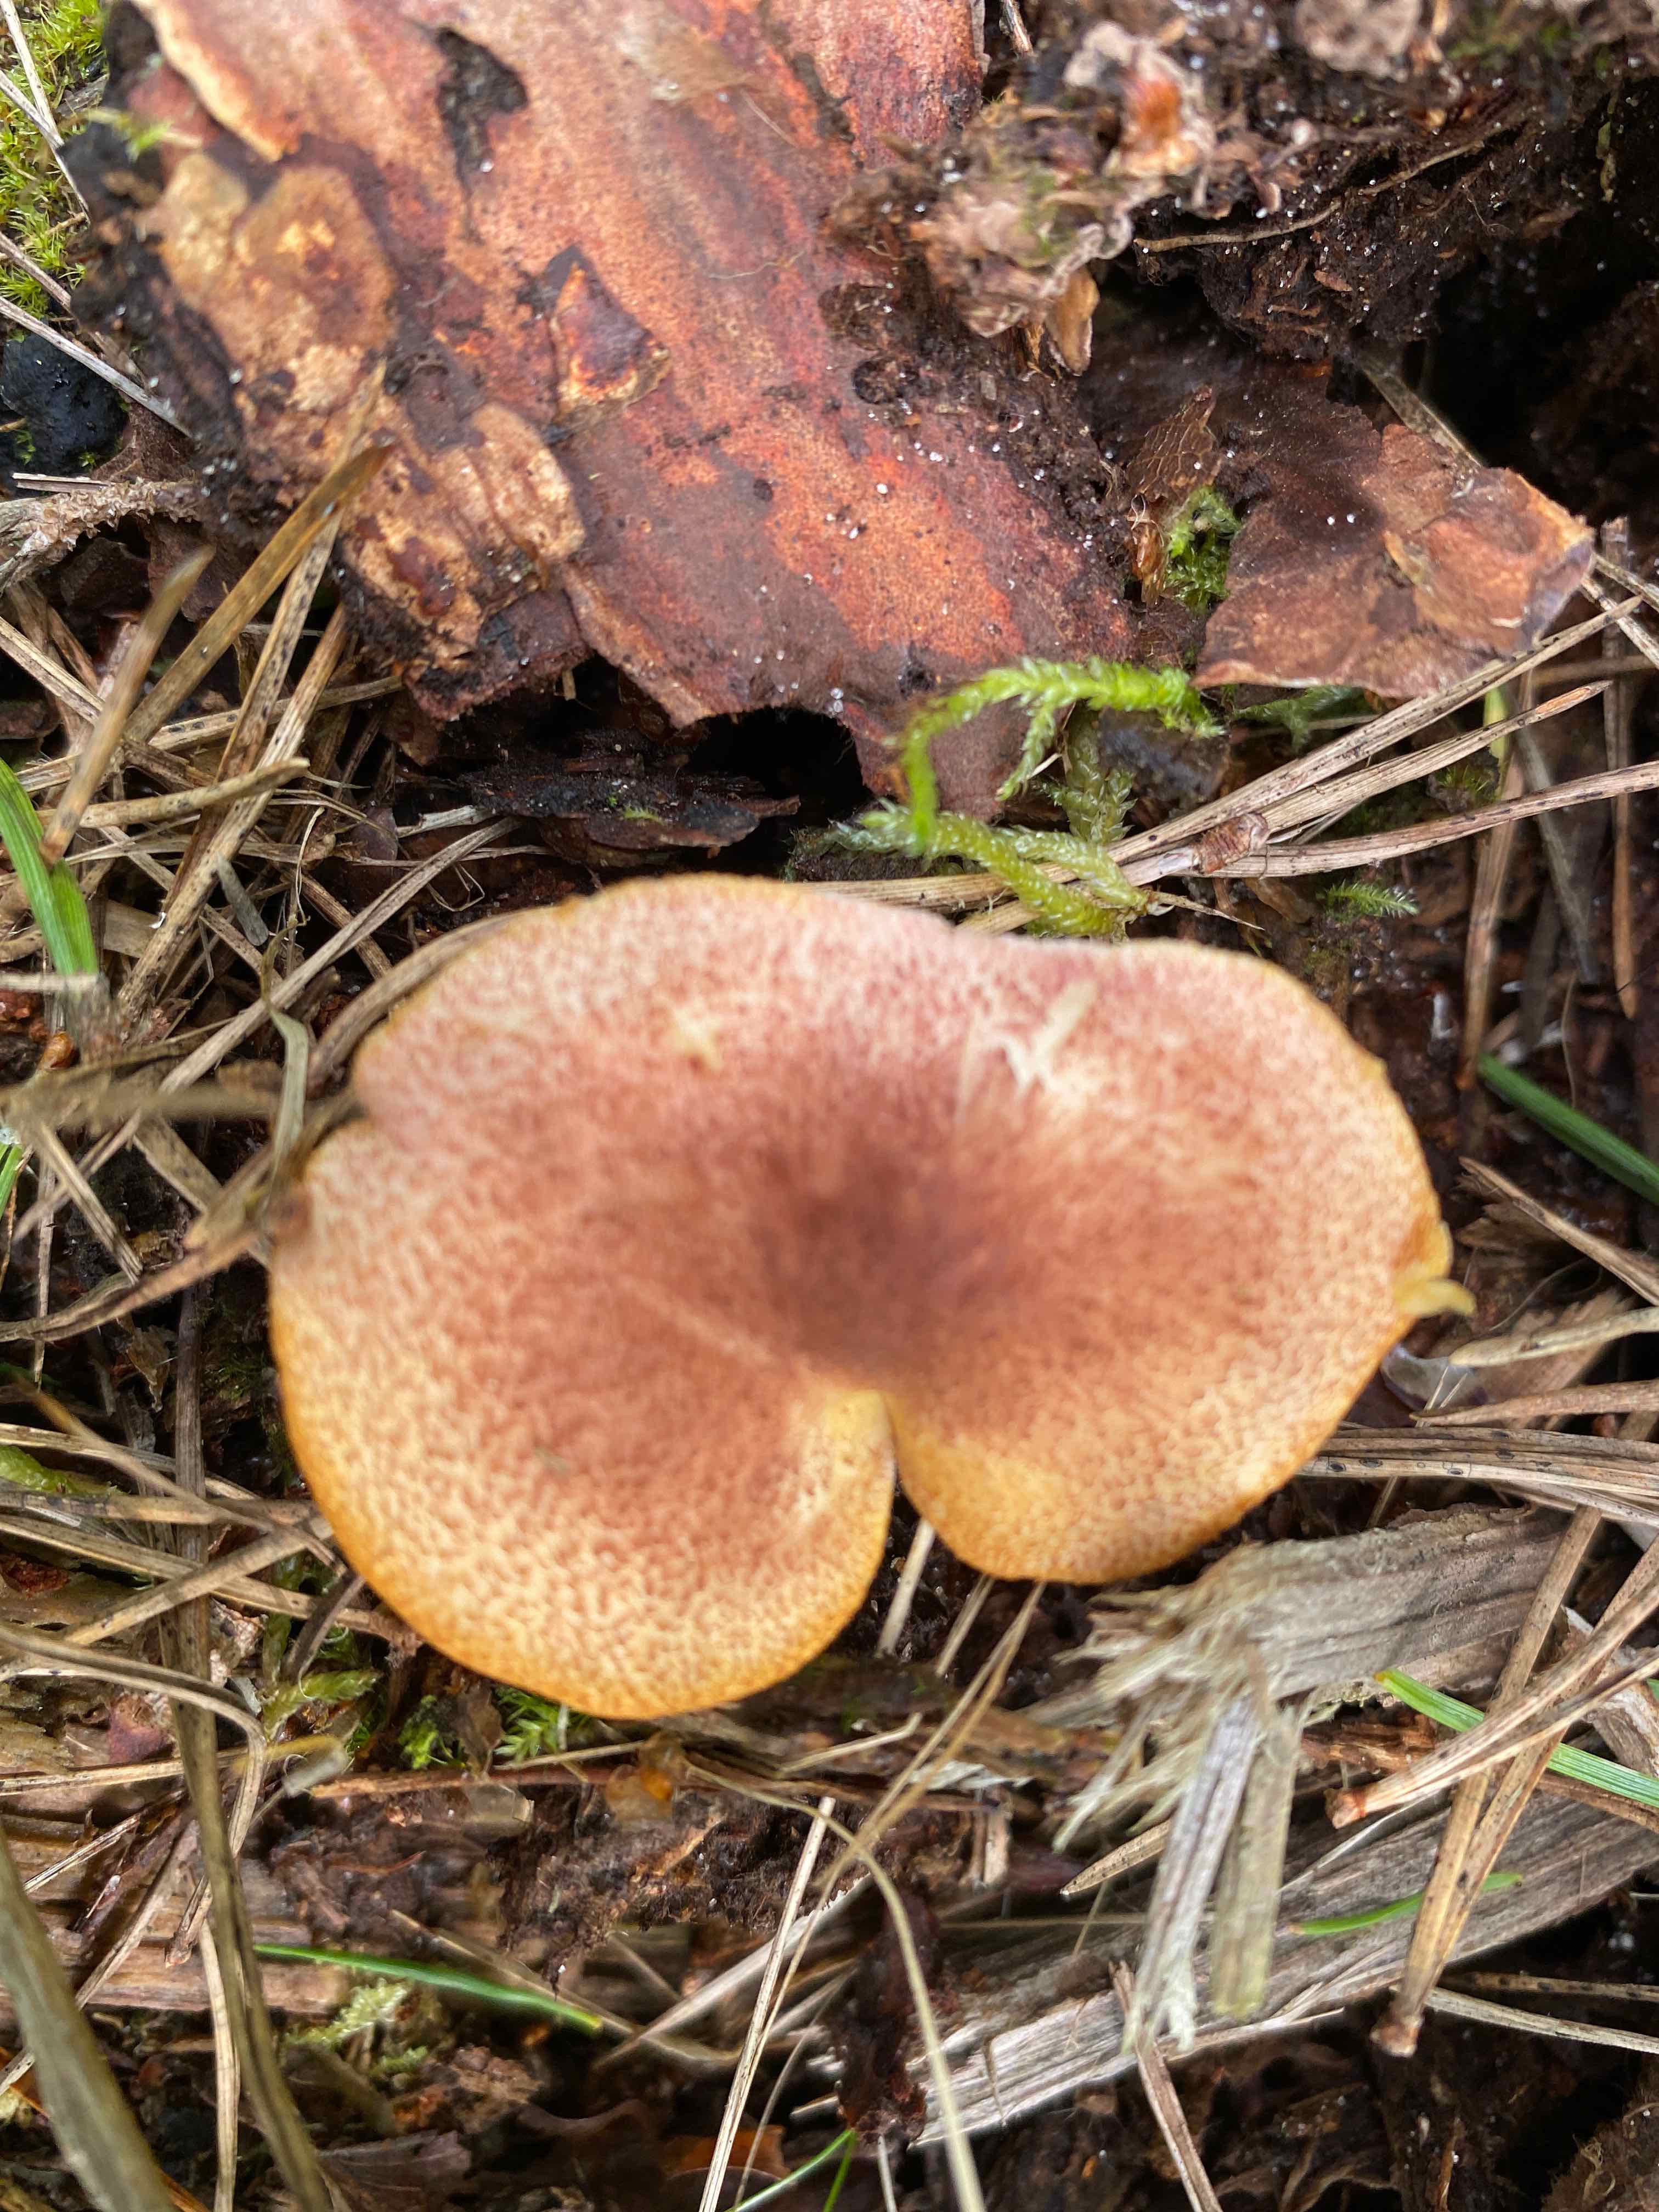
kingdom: Fungi
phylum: Basidiomycota
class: Agaricomycetes
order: Agaricales
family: Tricholomataceae
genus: Tricholomopsis
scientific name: Tricholomopsis rutilans
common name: purpur-væbnerhat
